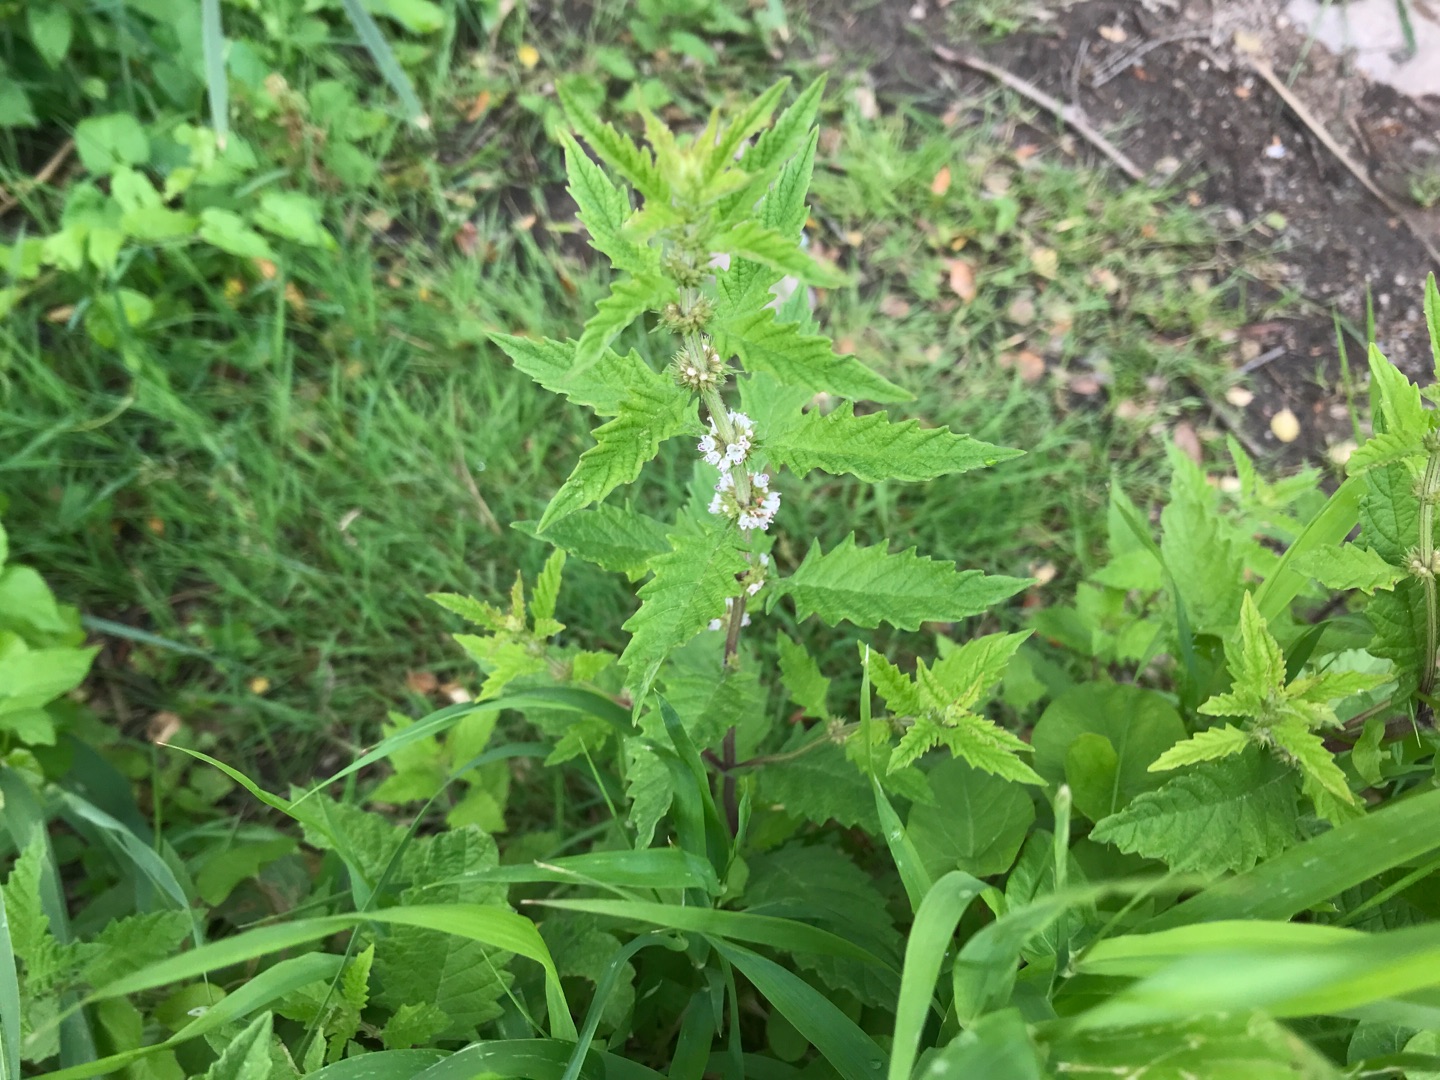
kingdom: Plantae
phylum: Tracheophyta
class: Magnoliopsida
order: Lamiales
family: Lamiaceae
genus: Lycopus
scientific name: Lycopus europaeus
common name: Sværtevæld
